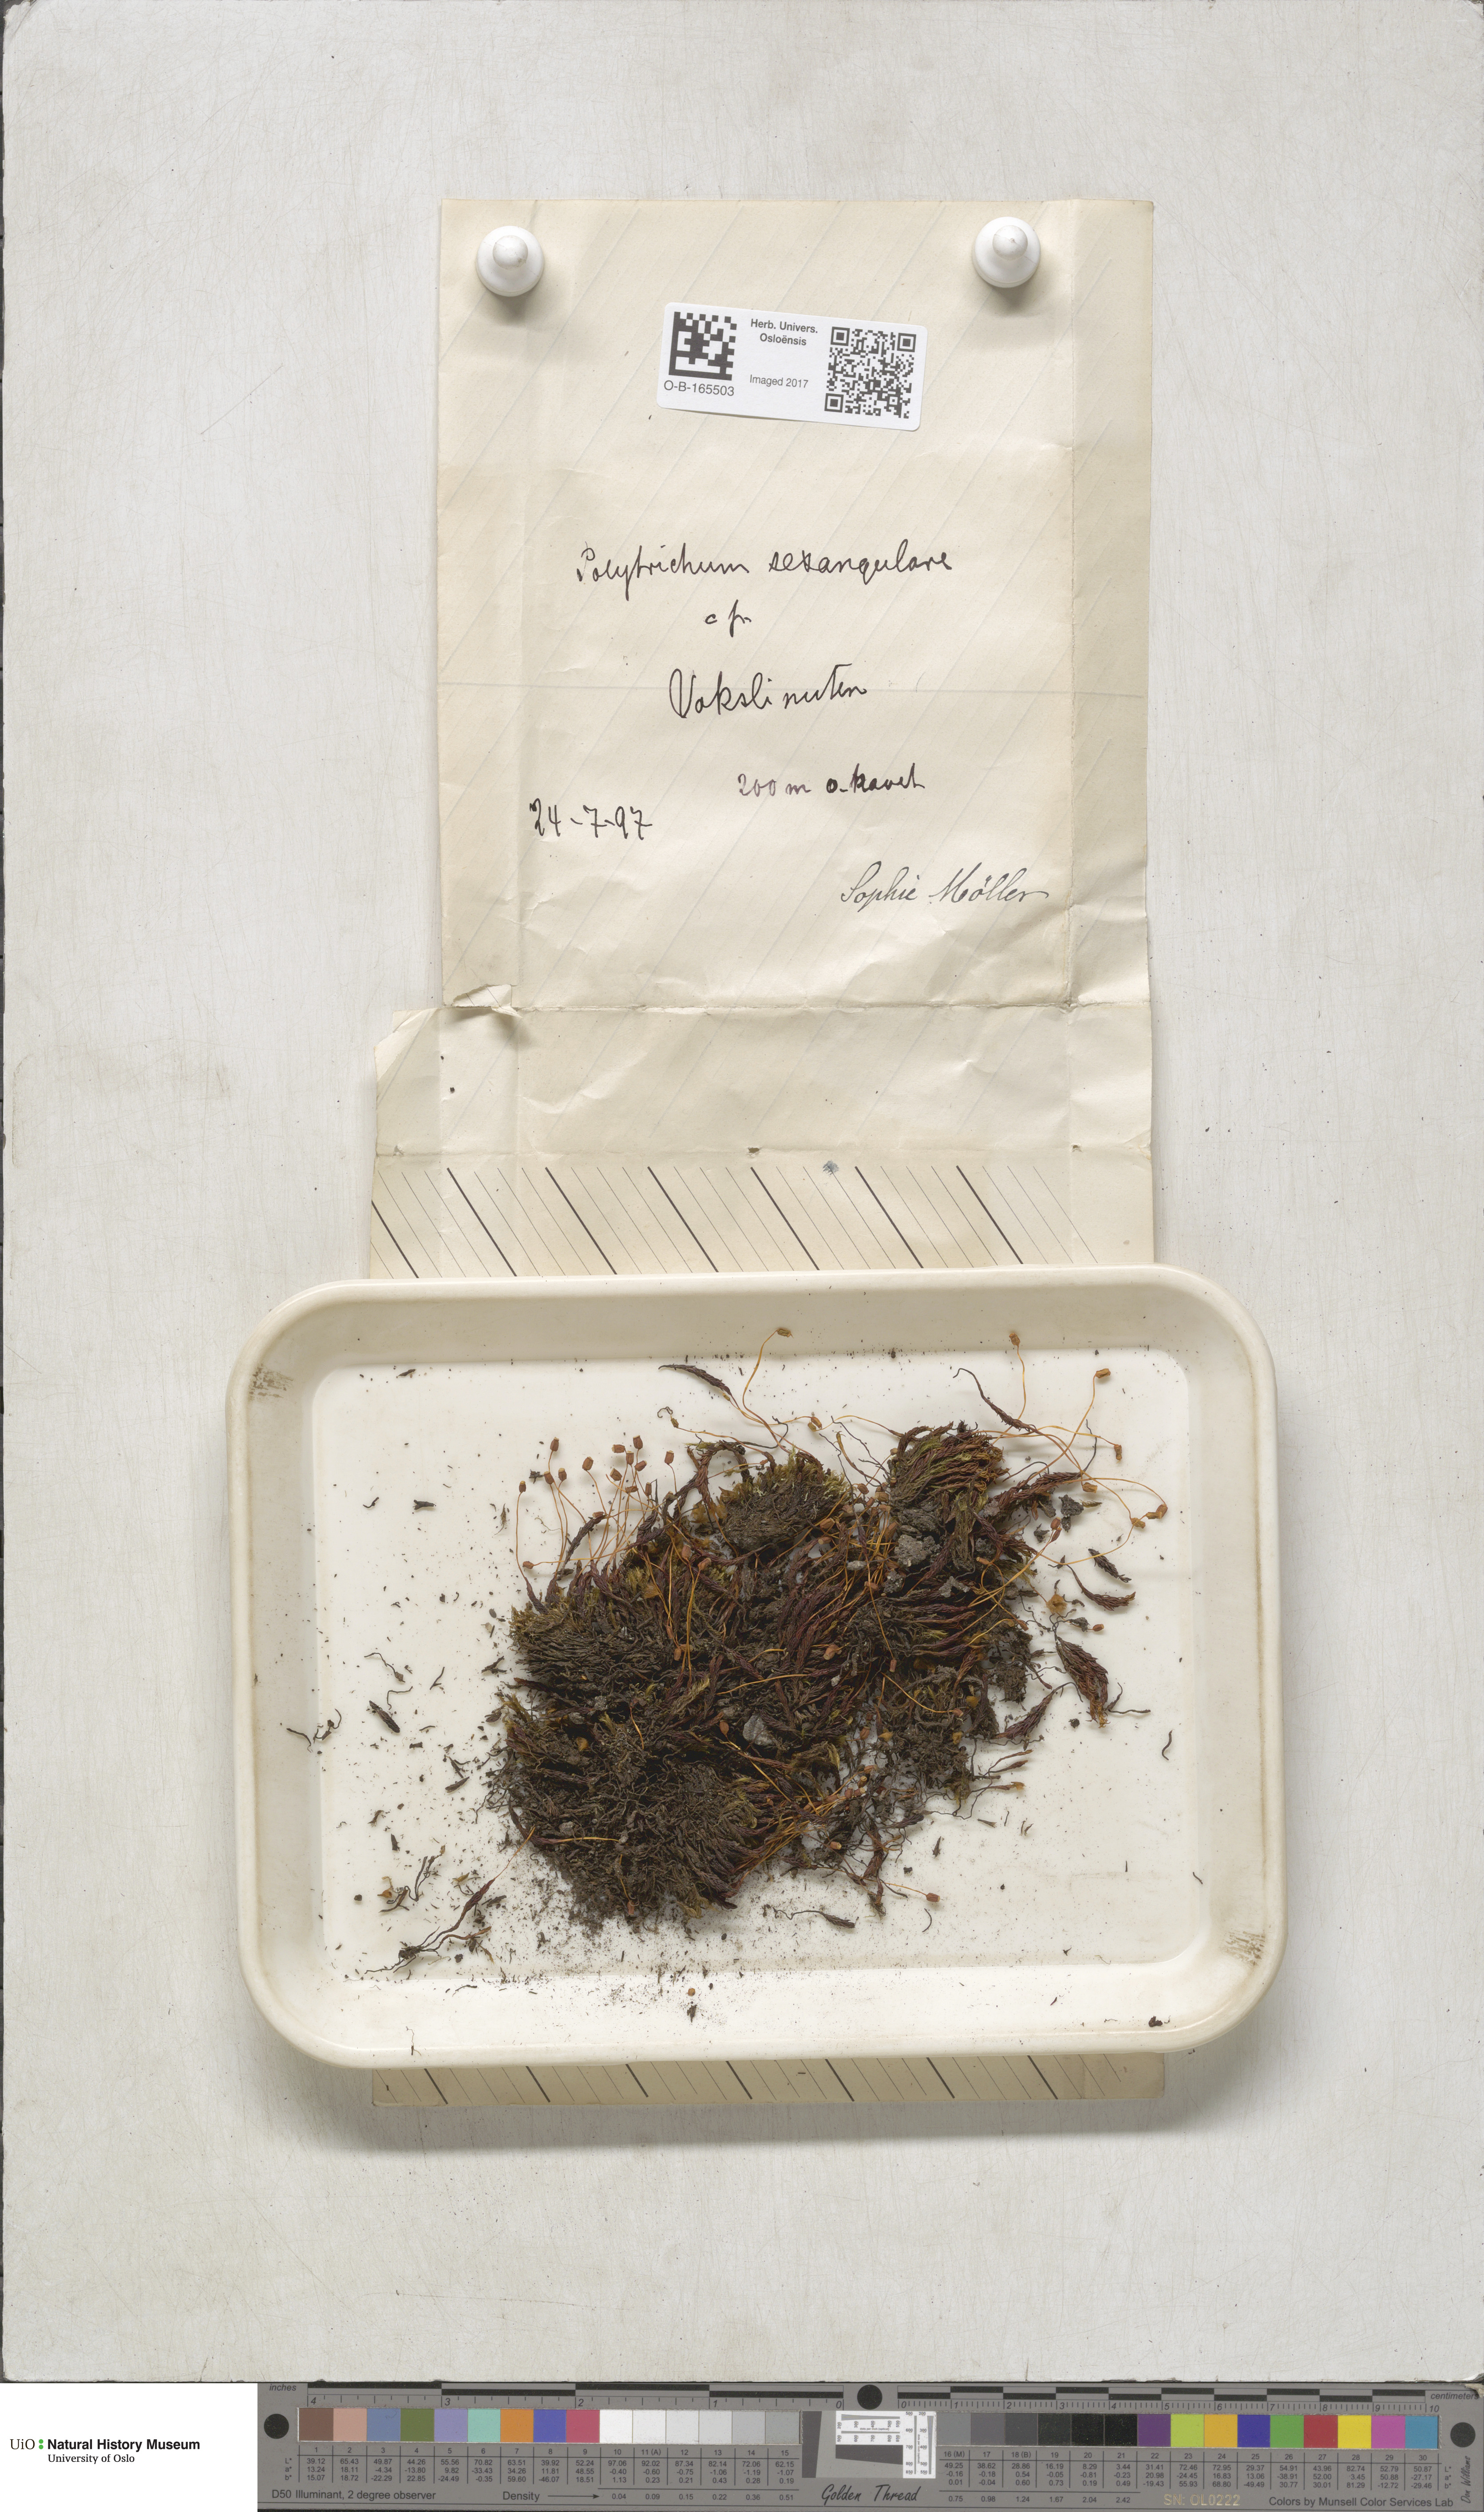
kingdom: Plantae
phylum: Bryophyta
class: Polytrichopsida
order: Polytrichales
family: Polytrichaceae
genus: Polytrichastrum
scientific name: Polytrichastrum sexangulare
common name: Northern haircap
